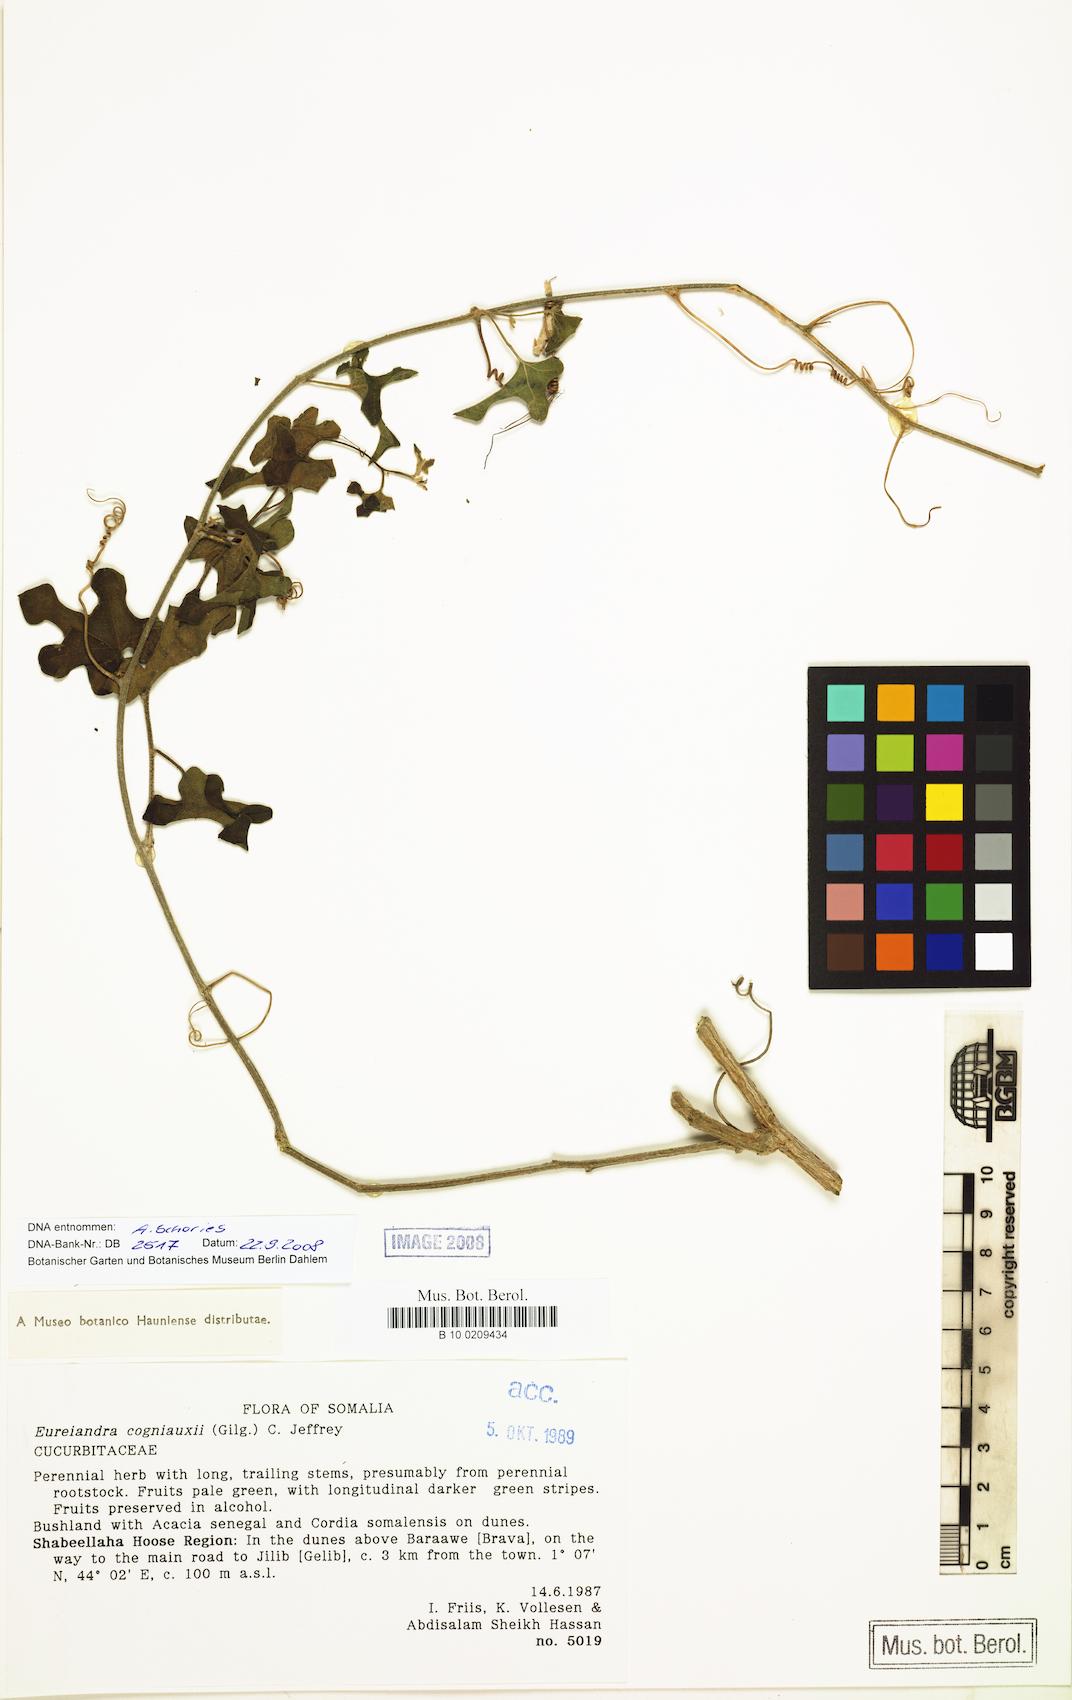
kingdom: Plantae
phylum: Tracheophyta
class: Magnoliopsida
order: Cucurbitales
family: Cucurbitaceae
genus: Eureiandra
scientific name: Eureiandra cogniauxii
